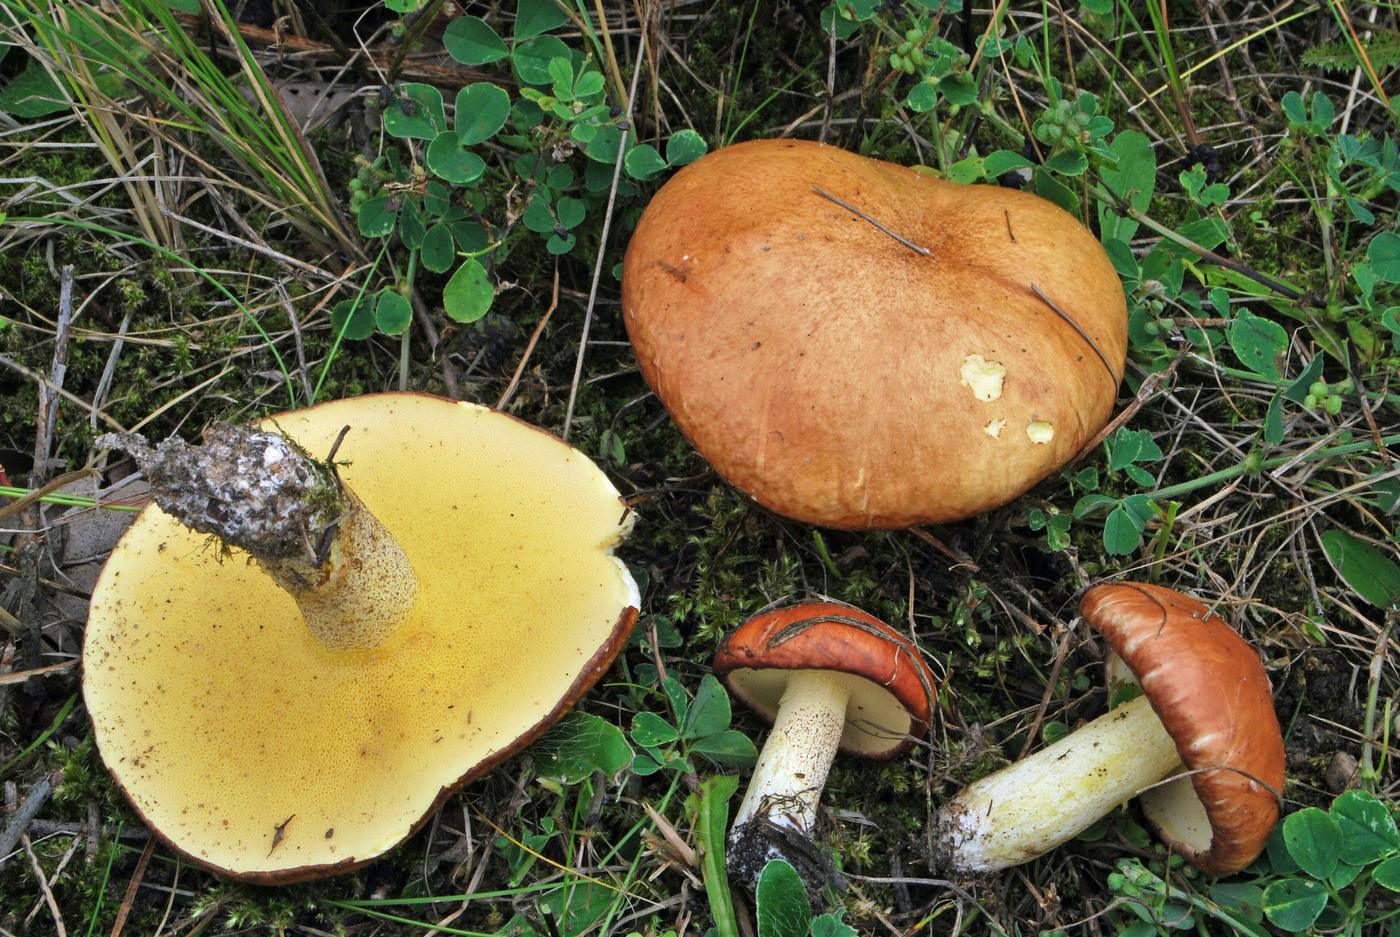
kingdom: Fungi
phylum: Basidiomycota
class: Agaricomycetes
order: Boletales
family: Suillaceae
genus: Suillus
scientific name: Suillus granulatus
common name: kornet slimrørhat
